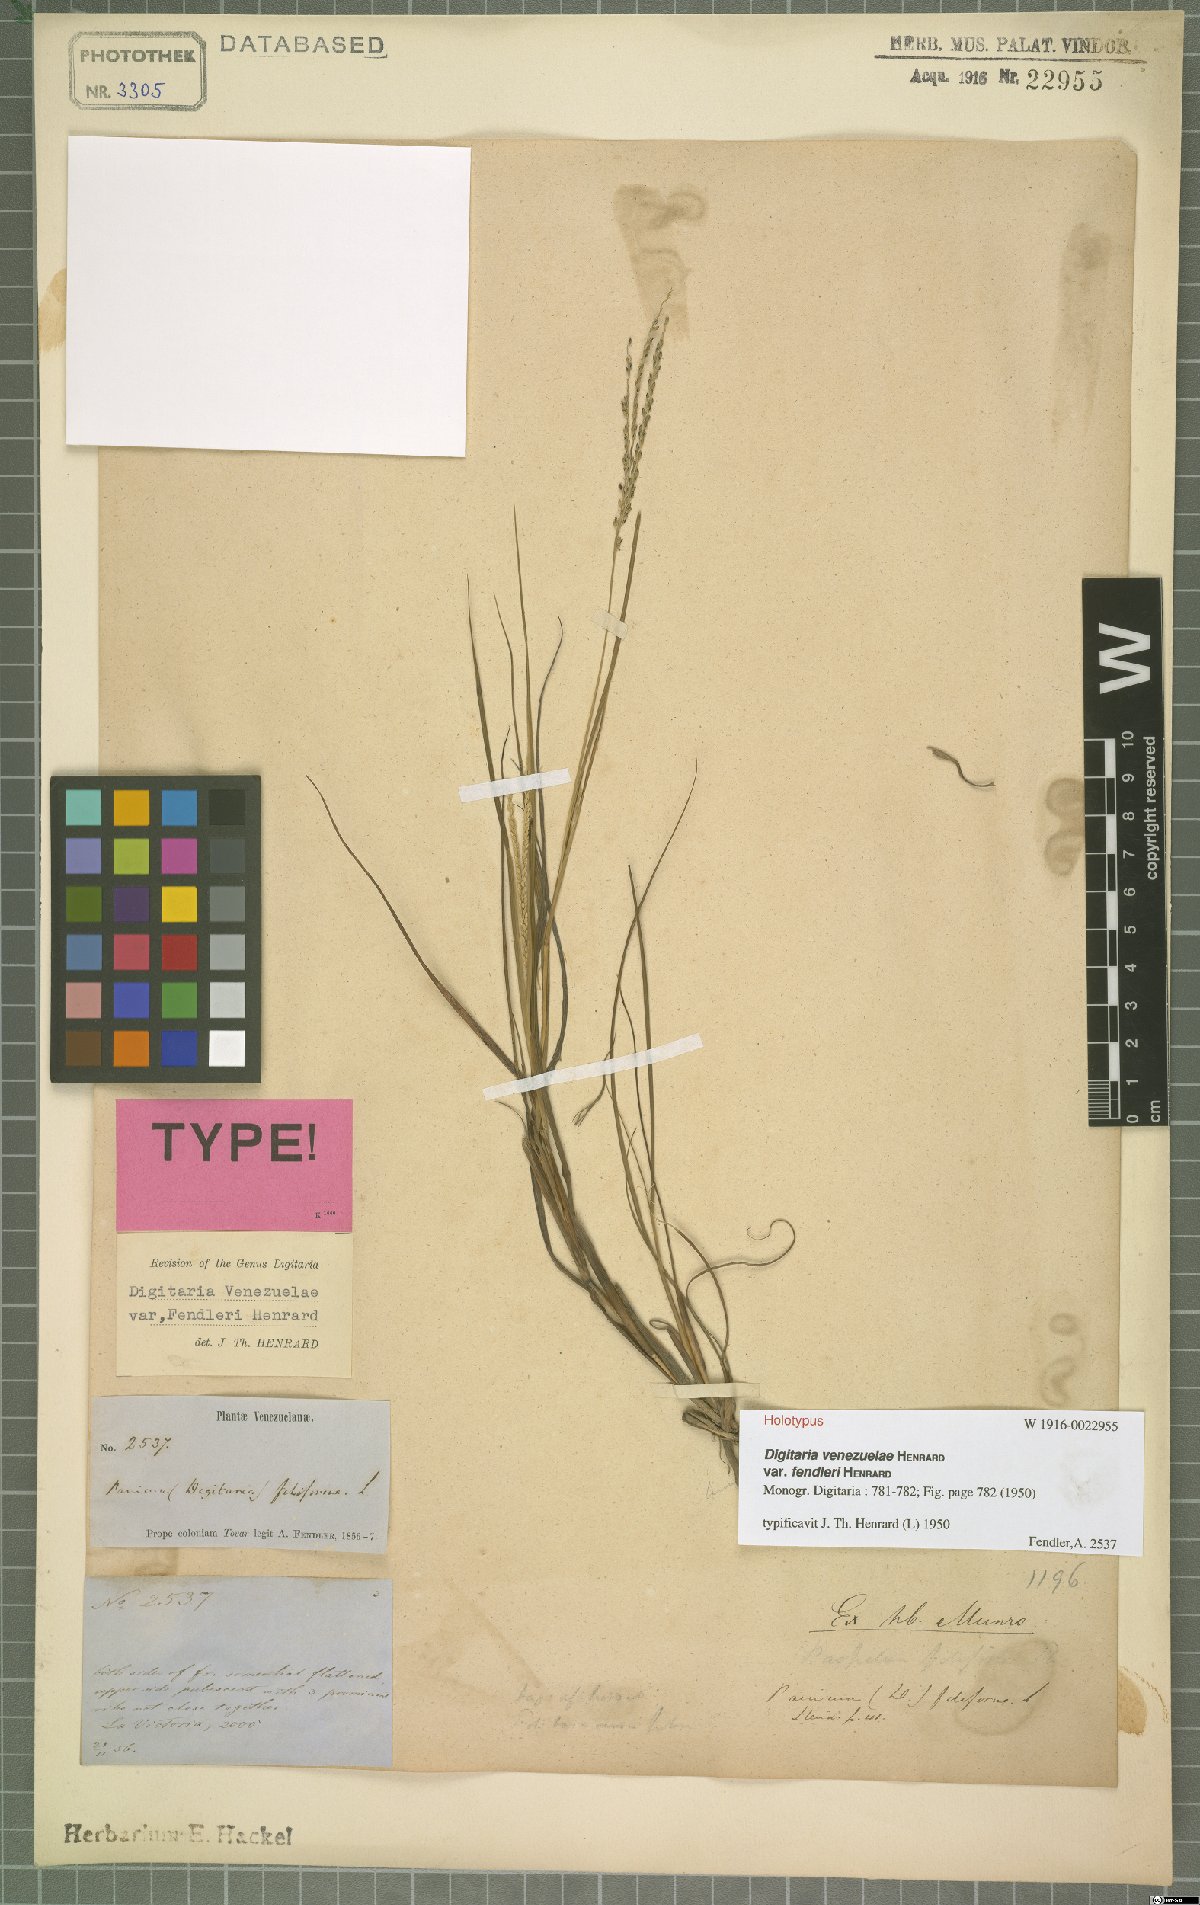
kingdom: Plantae
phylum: Tracheophyta
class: Liliopsida
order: Poales
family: Poaceae
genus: Digitaria
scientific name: Digitaria venezuelae
